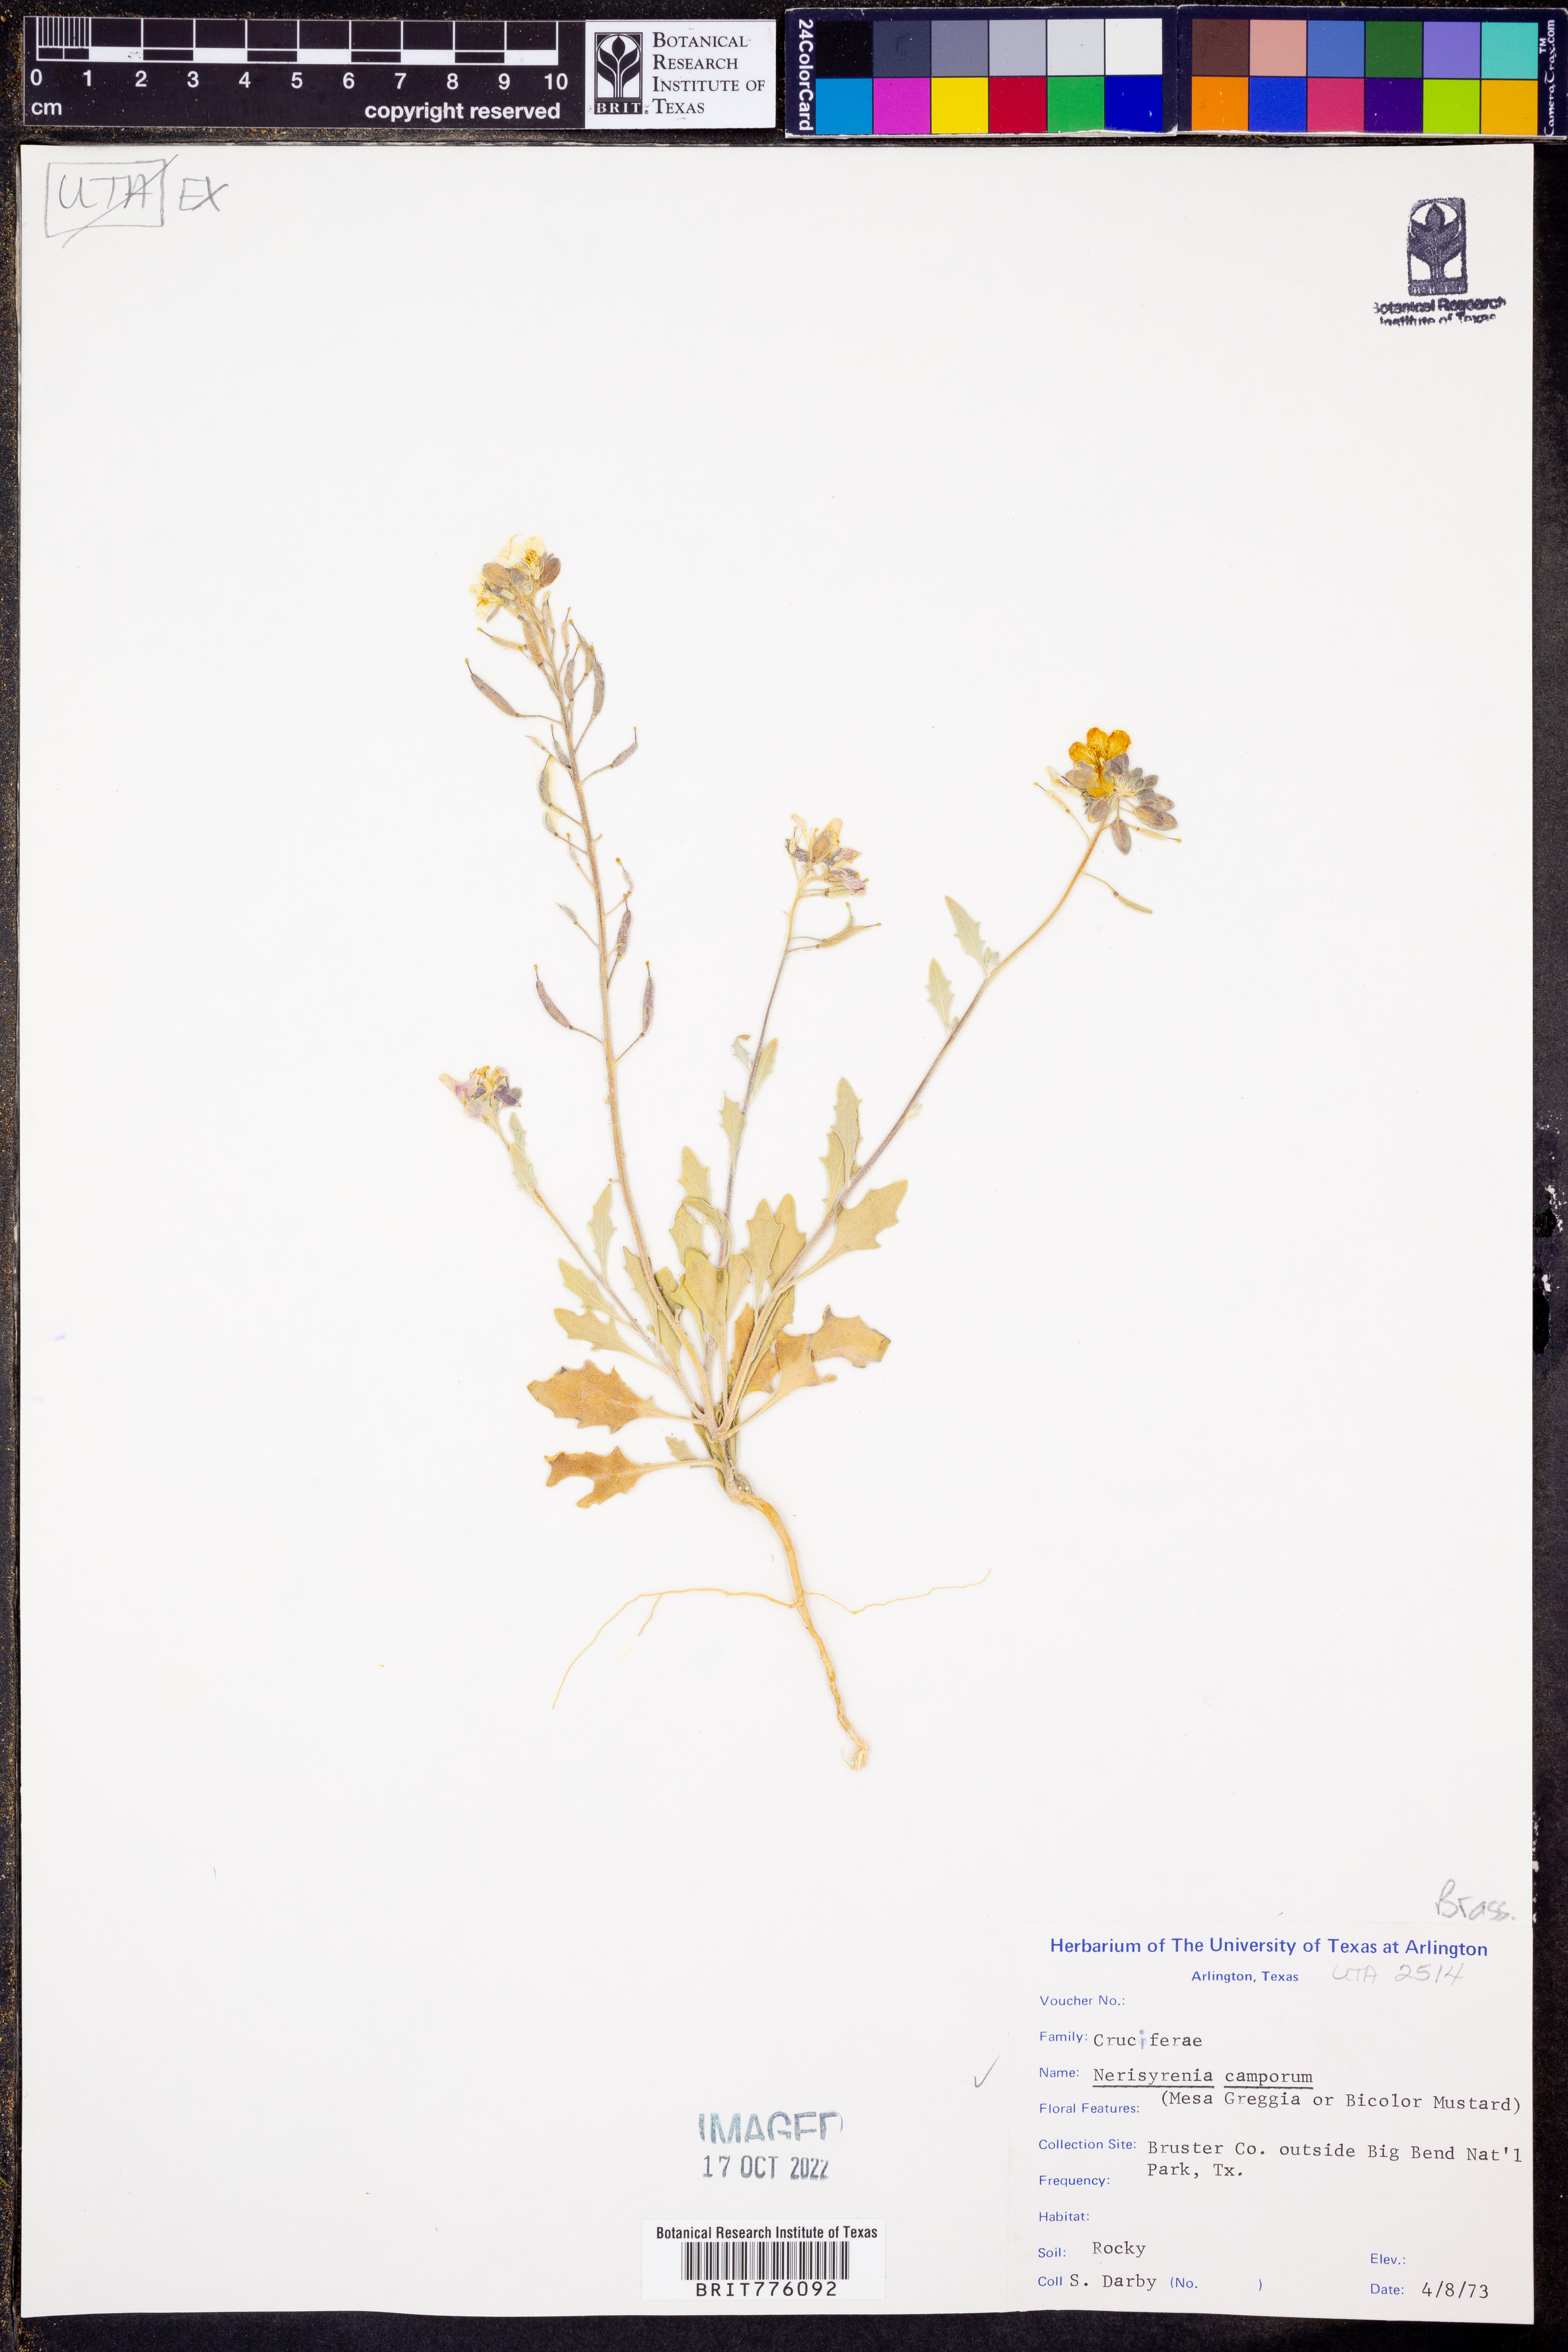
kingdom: Plantae
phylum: Tracheophyta
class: Magnoliopsida
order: Brassicales
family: Brassicaceae
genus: Nerisyrenia
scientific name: Nerisyrenia camporum
